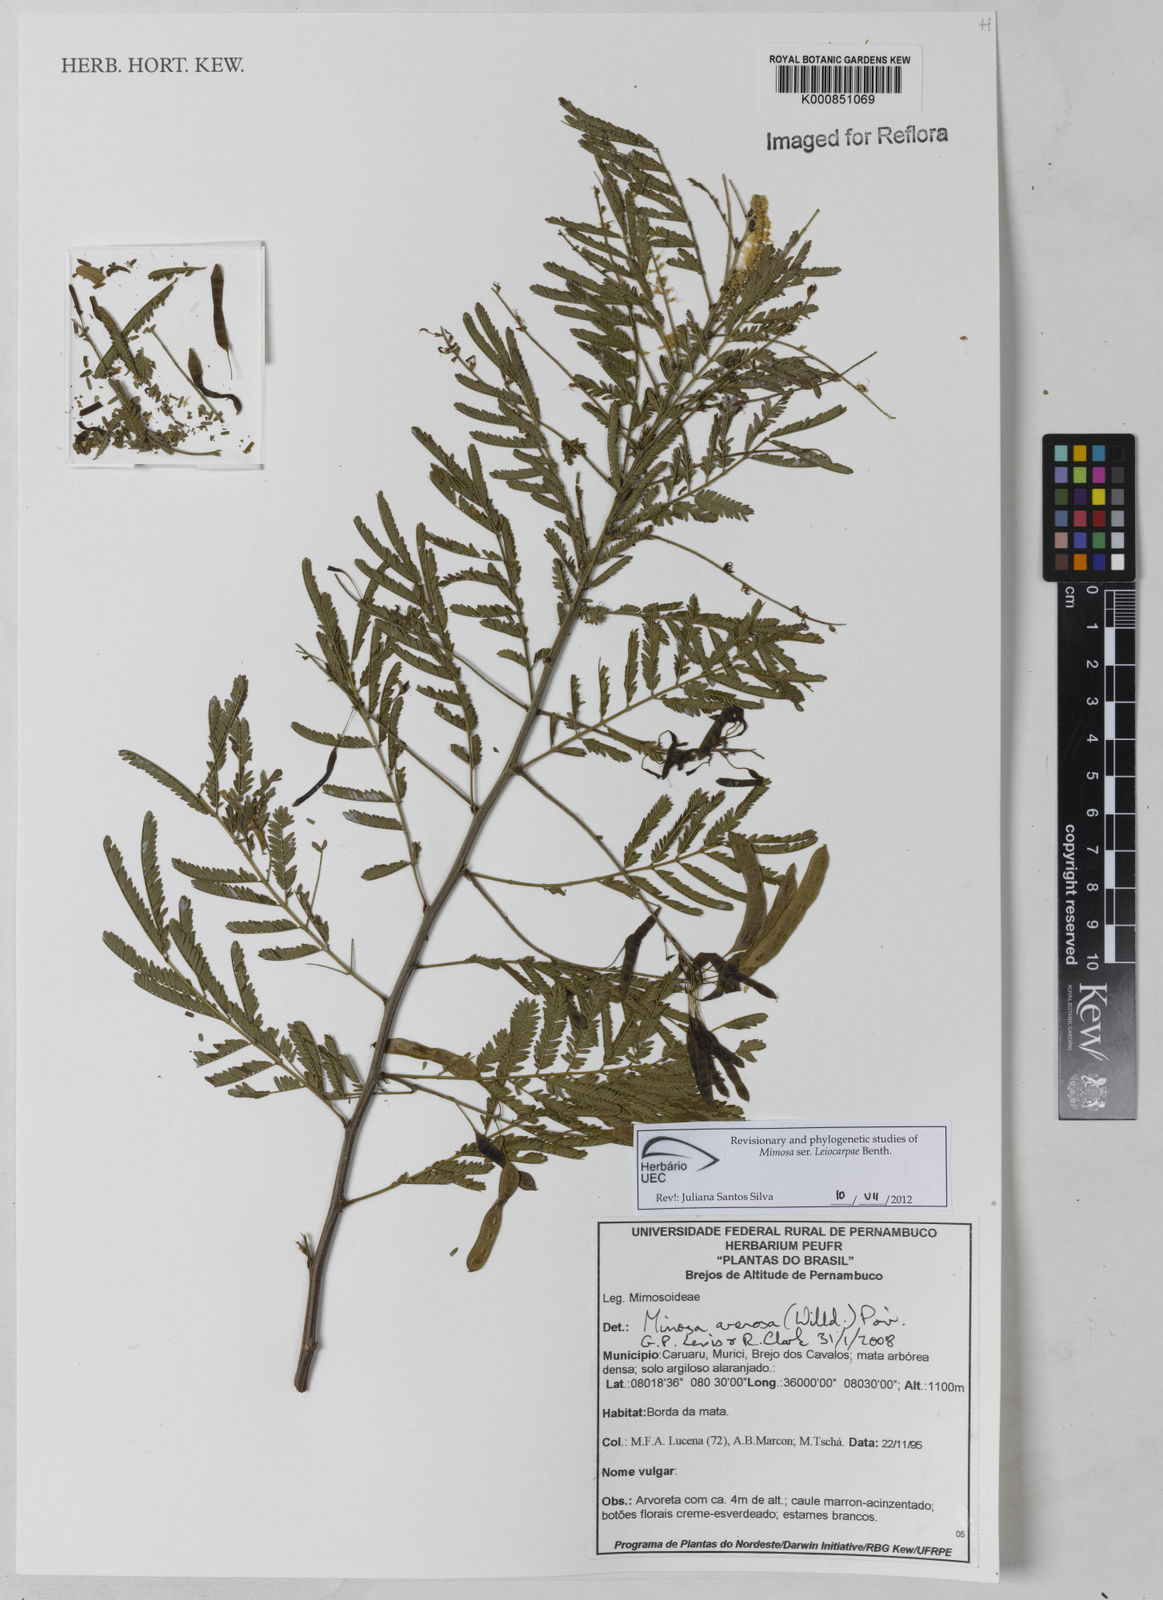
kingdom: Plantae
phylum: Tracheophyta
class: Magnoliopsida
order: Fabales
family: Fabaceae
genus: Mimosa
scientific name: Mimosa arenosa
